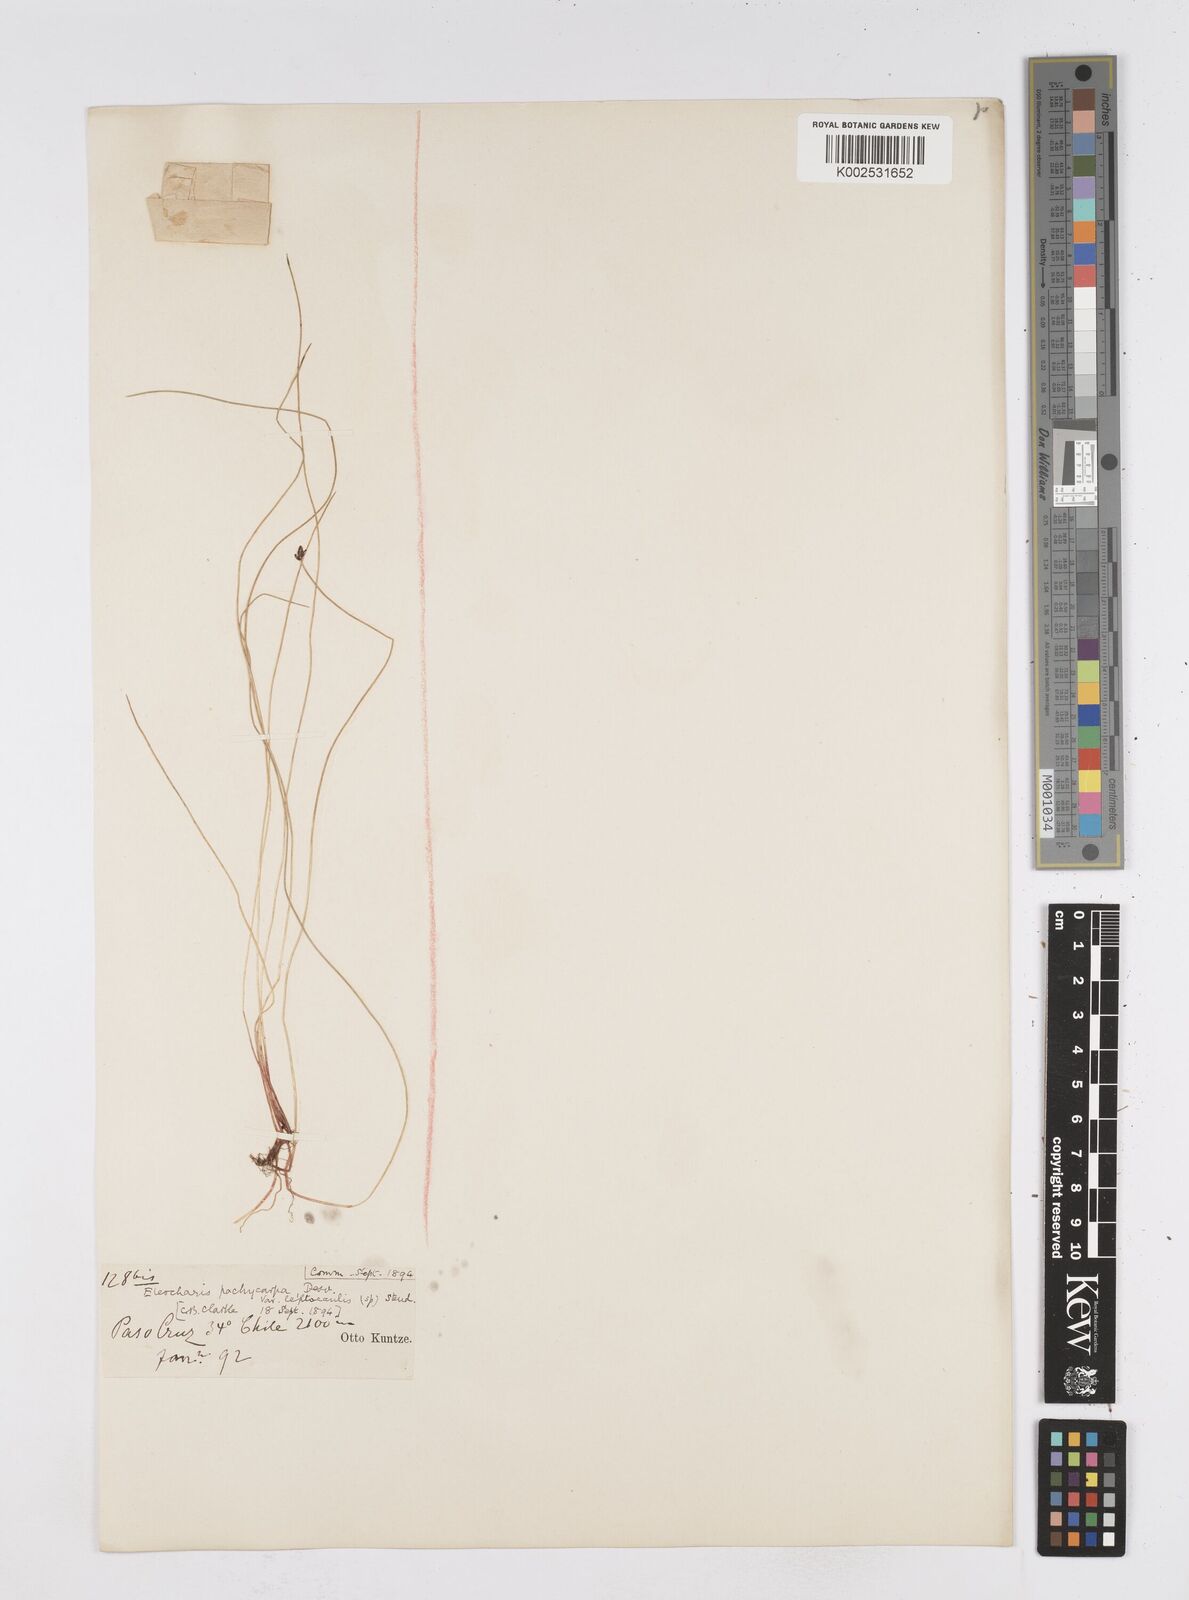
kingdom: Plantae
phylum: Tracheophyta
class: Liliopsida
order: Poales
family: Cyperaceae
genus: Eleocharis
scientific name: Eleocharis pachycarpa
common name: Black sand spikerush
